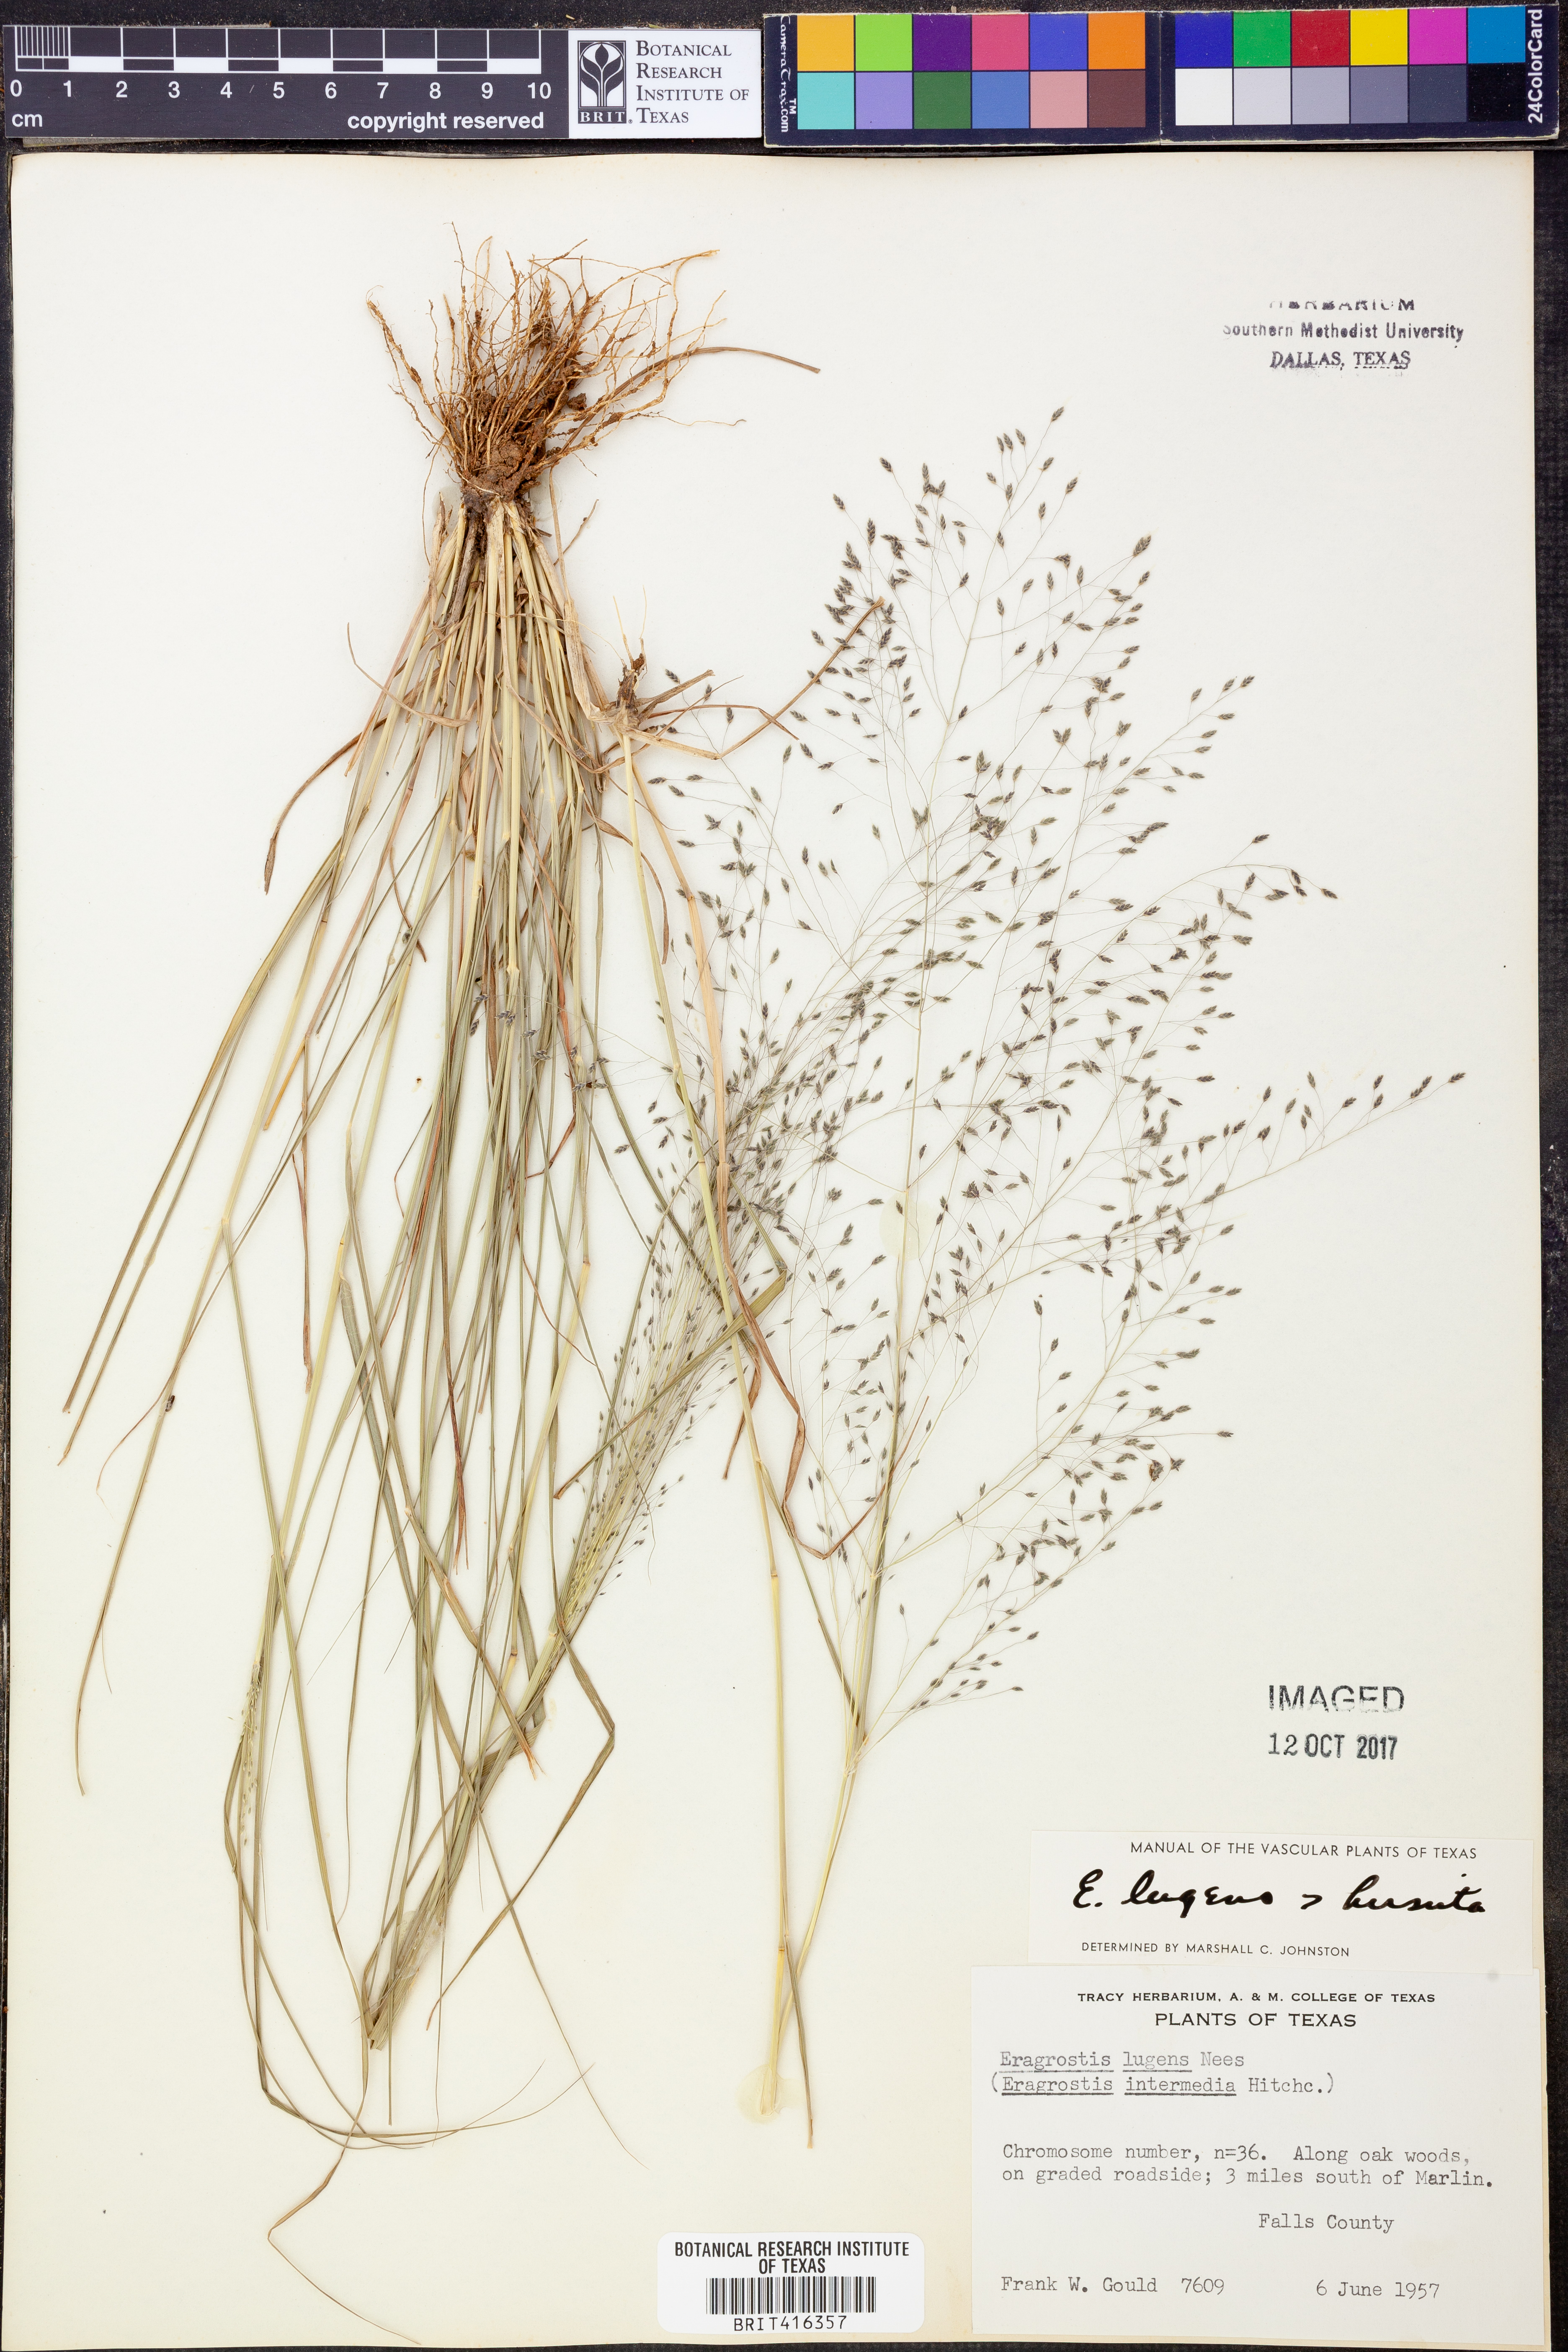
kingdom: Plantae
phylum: Tracheophyta
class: Liliopsida
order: Poales
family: Poaceae
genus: Eragrostis
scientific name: Eragrostis capillaris
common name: Hair-like lovegrass
